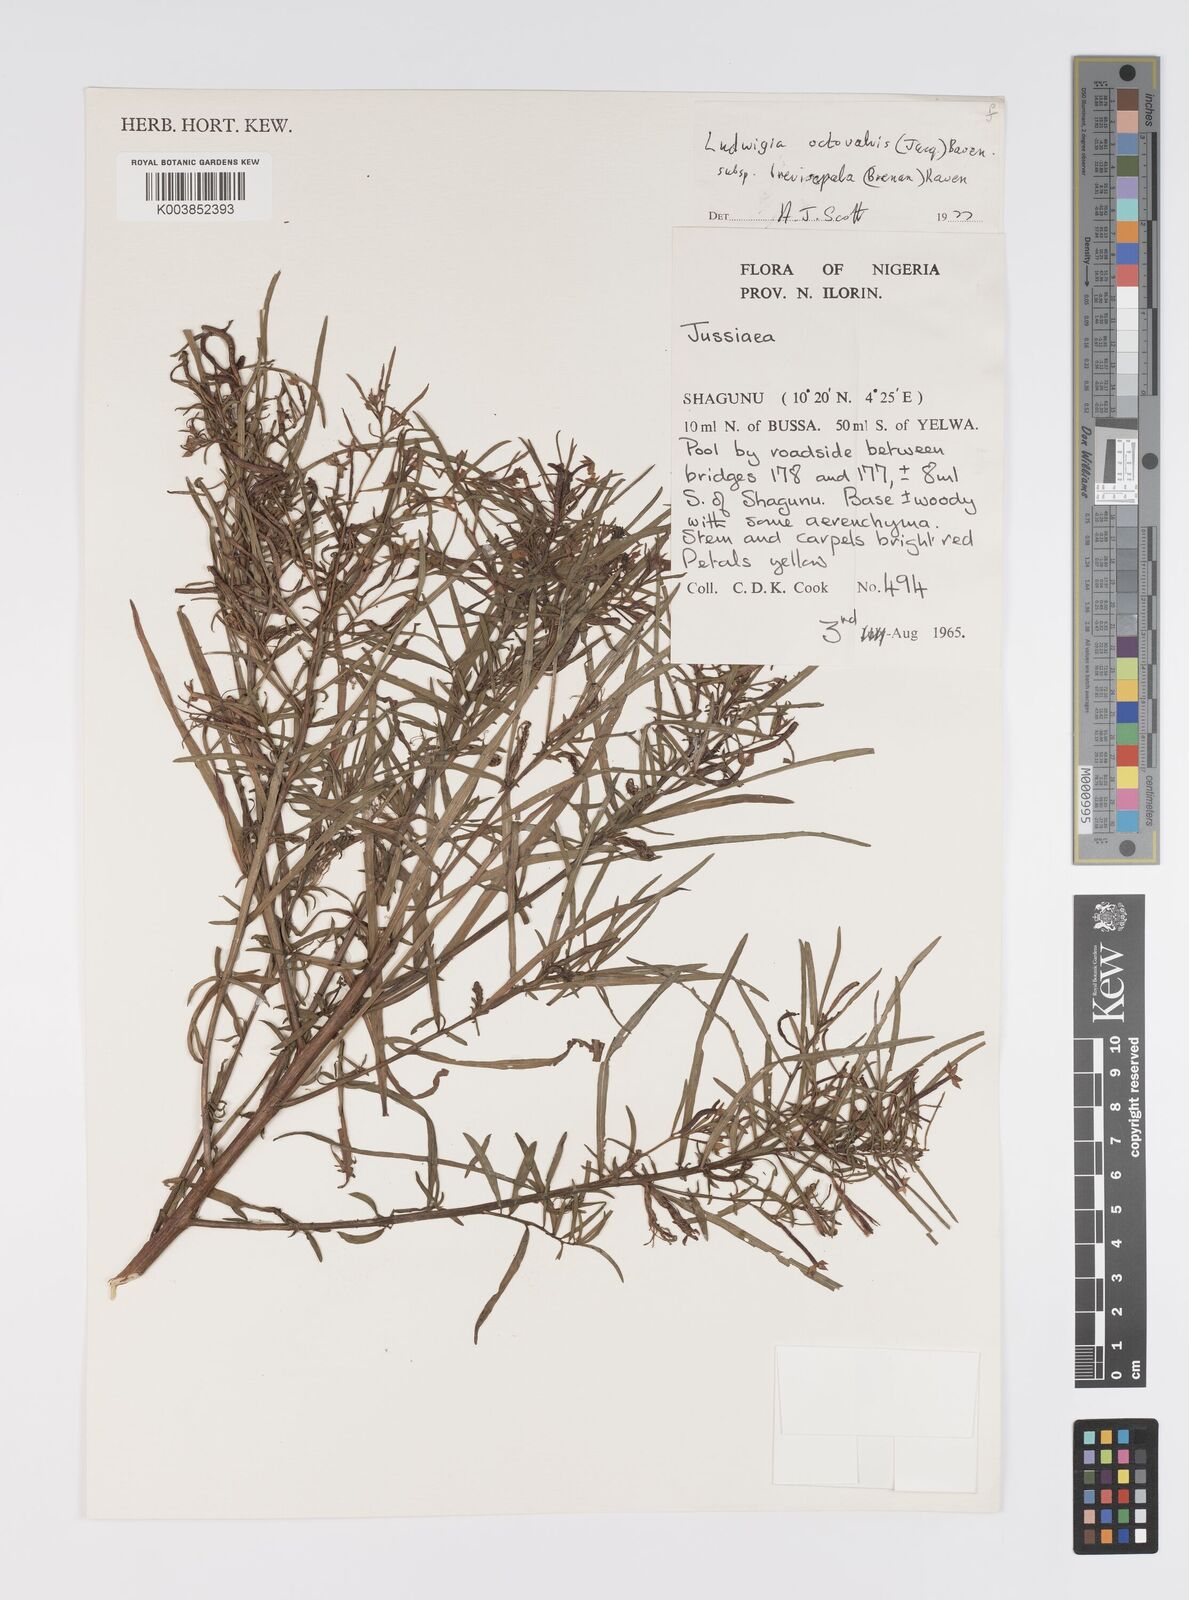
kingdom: Plantae
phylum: Tracheophyta
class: Magnoliopsida
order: Myrtales
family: Onagraceae
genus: Ludwigia
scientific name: Ludwigia octovalvis
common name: Water-primrose
